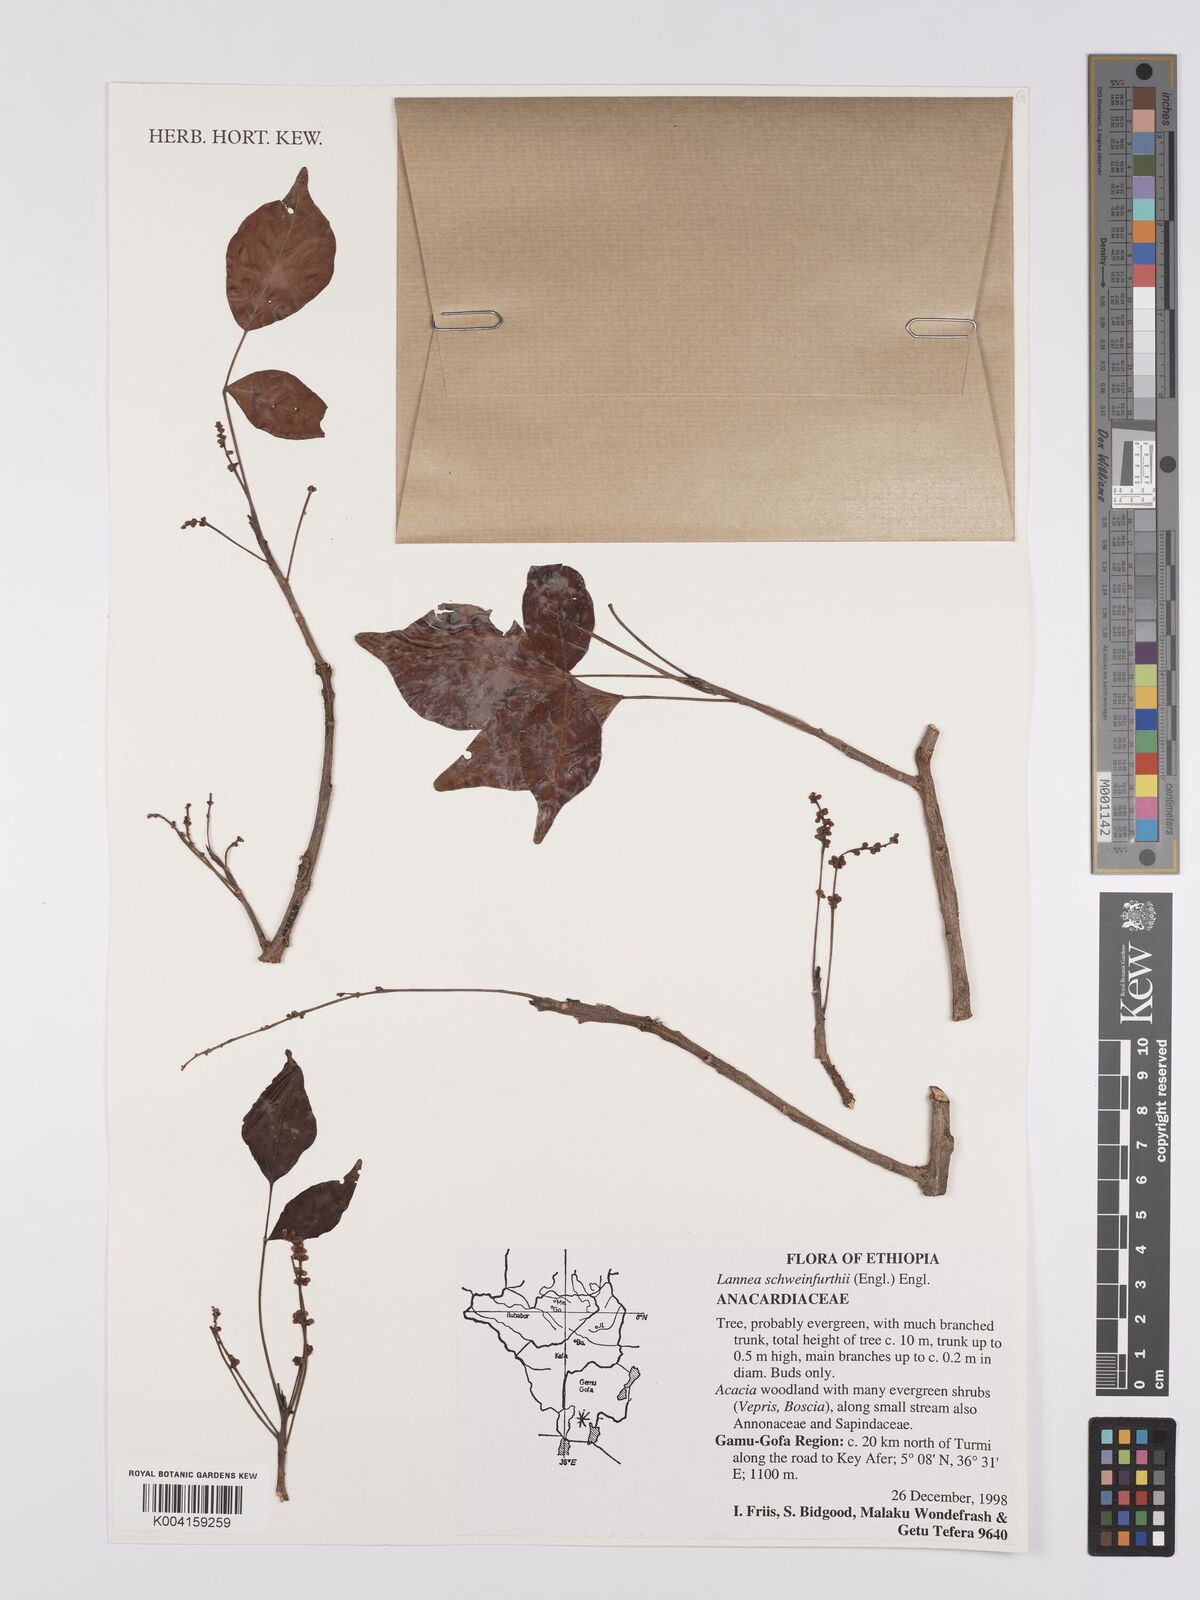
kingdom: Plantae
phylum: Tracheophyta
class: Magnoliopsida
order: Sapindales
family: Anacardiaceae
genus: Lannea
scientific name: Lannea schweinfurthii
